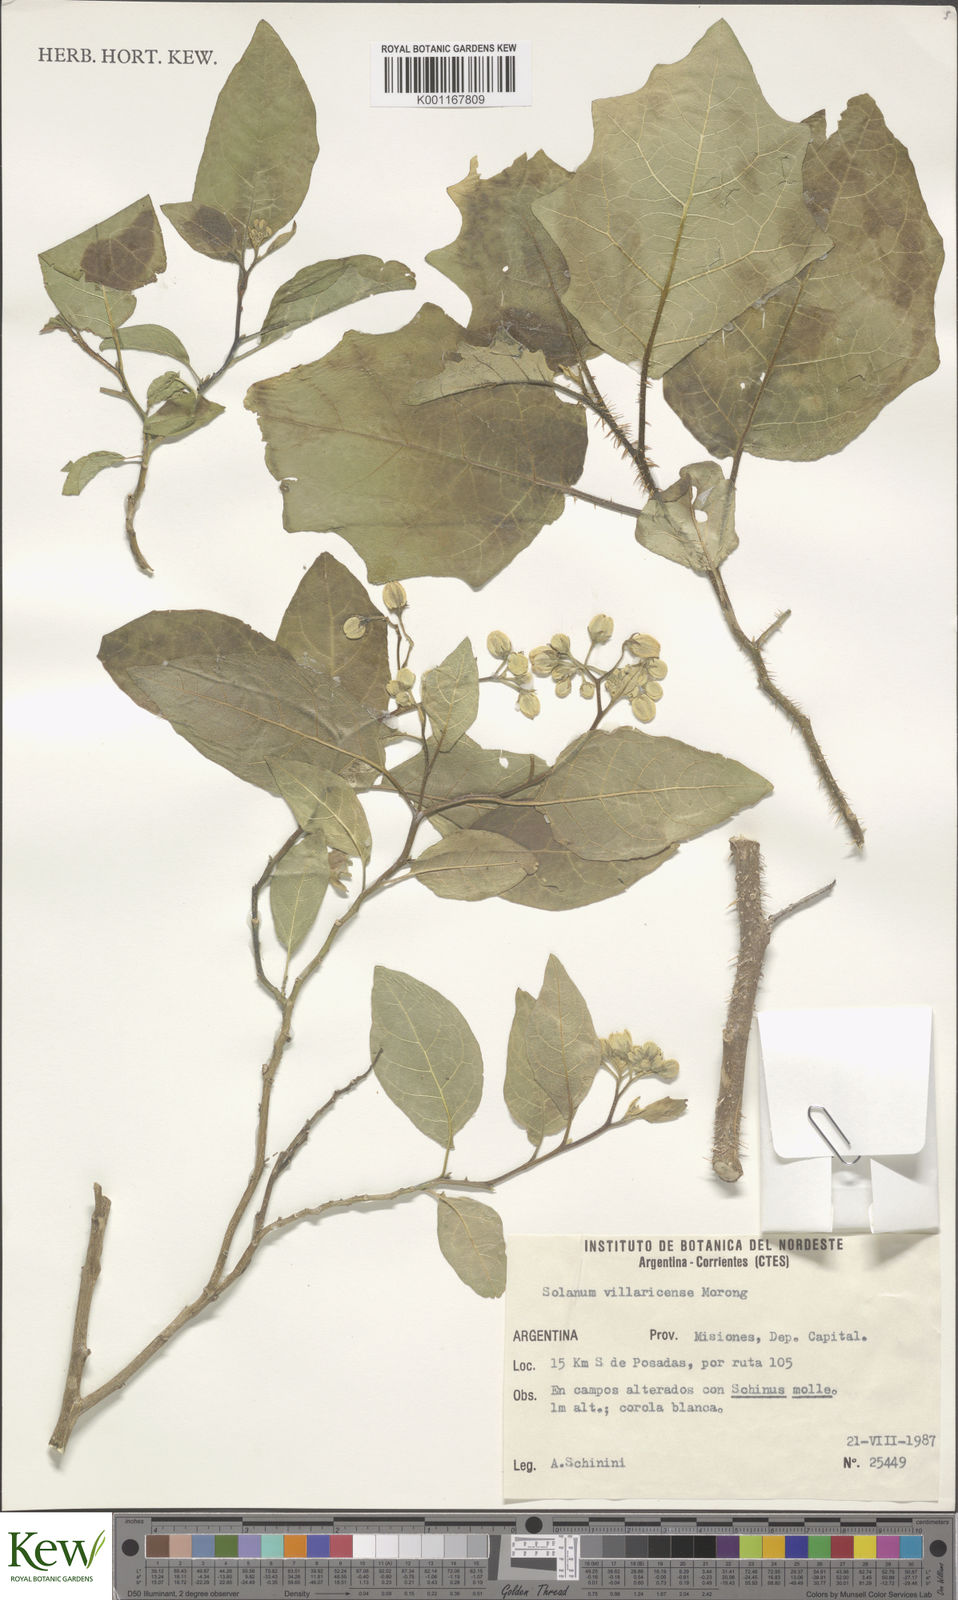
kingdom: Plantae
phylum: Tracheophyta
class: Magnoliopsida
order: Solanales
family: Solanaceae
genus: Solanum
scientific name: Solanum guaraniticum
